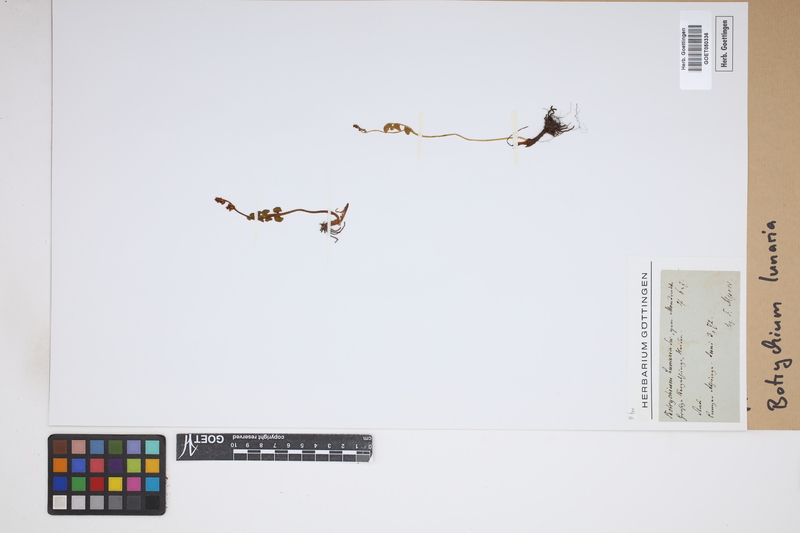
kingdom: Plantae
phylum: Tracheophyta
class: Polypodiopsida
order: Ophioglossales
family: Ophioglossaceae
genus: Botrychium
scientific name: Botrychium lunaria
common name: Moonwort
